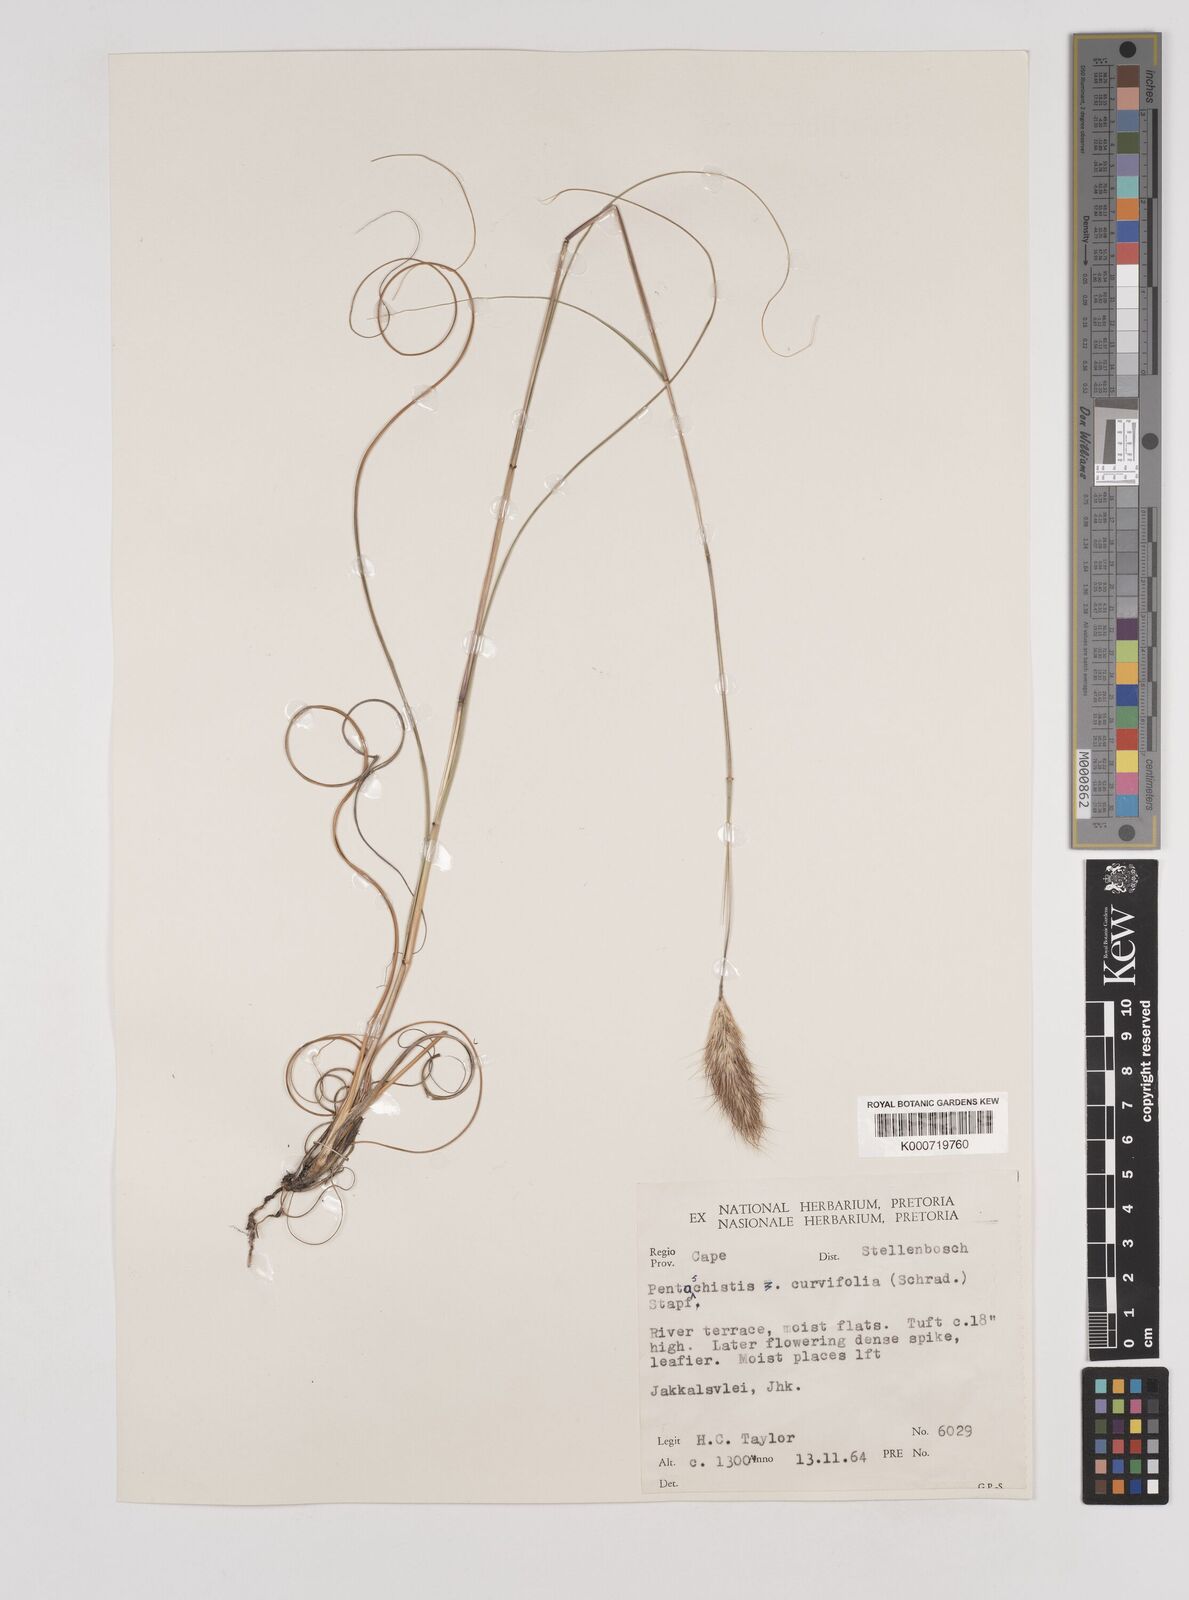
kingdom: Plantae
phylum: Tracheophyta
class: Liliopsida
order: Poales
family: Poaceae
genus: Pentameris
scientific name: Pentameris curvifolia
